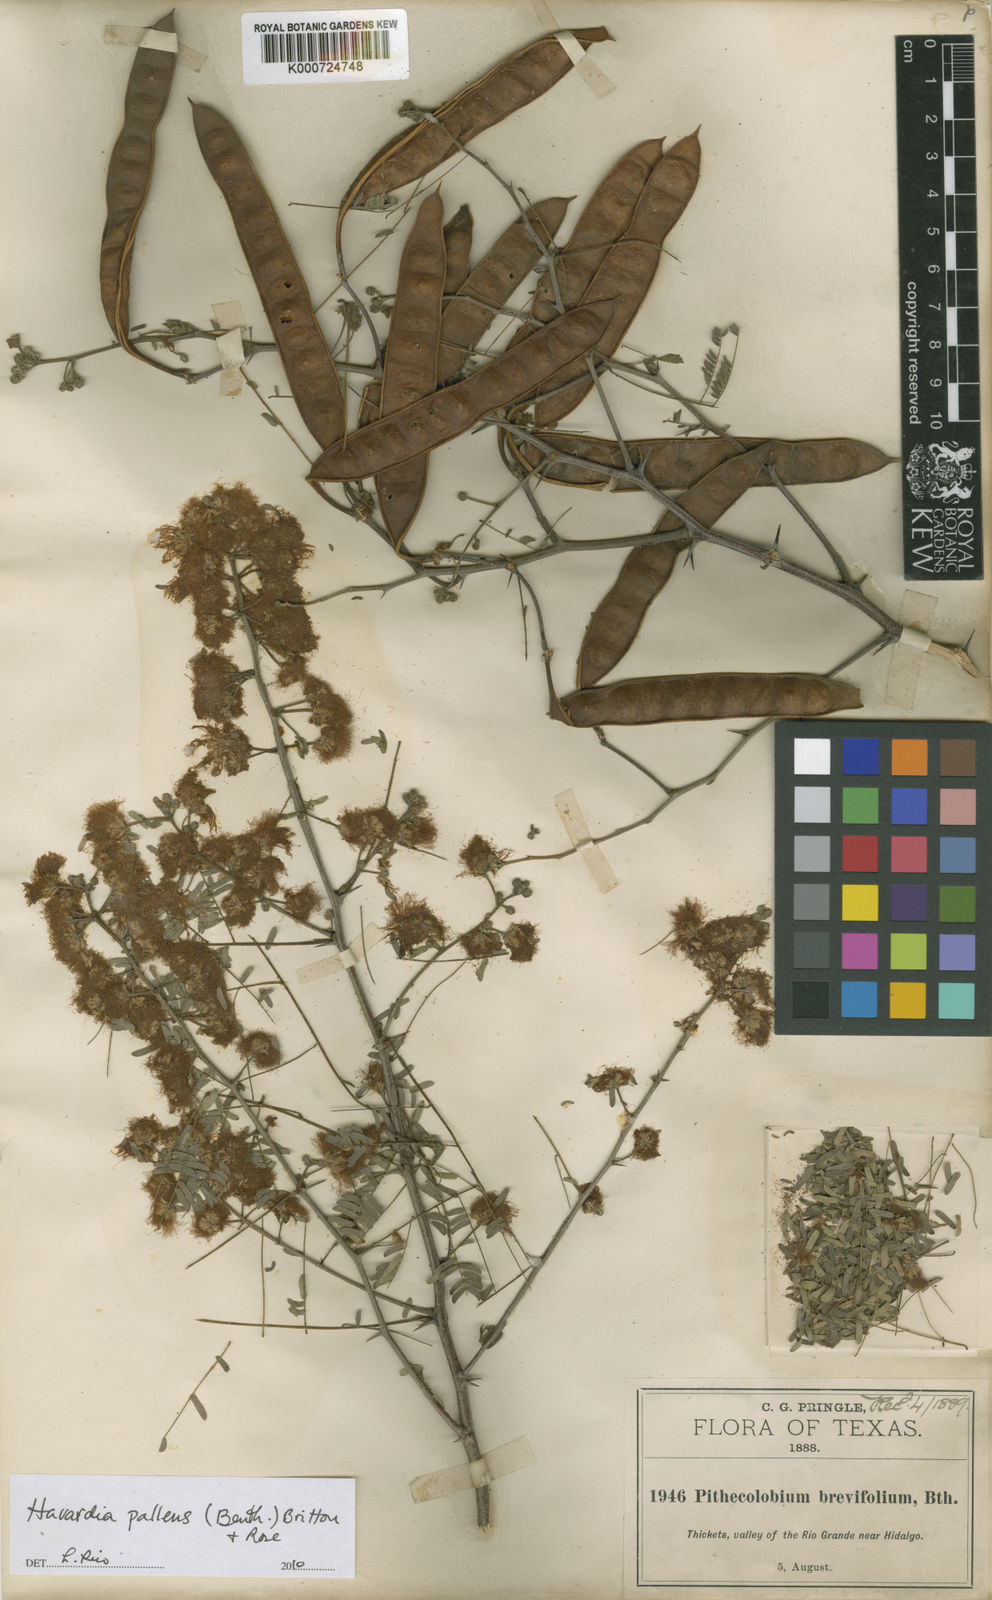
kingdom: Plantae
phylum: Tracheophyta
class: Magnoliopsida
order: Fabales
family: Fabaceae
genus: Havardia
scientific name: Havardia pallens
